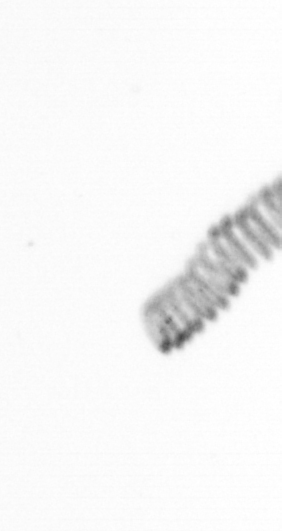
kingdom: Chromista
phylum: Ochrophyta
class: Bacillariophyceae
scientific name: Bacillariophyceae
